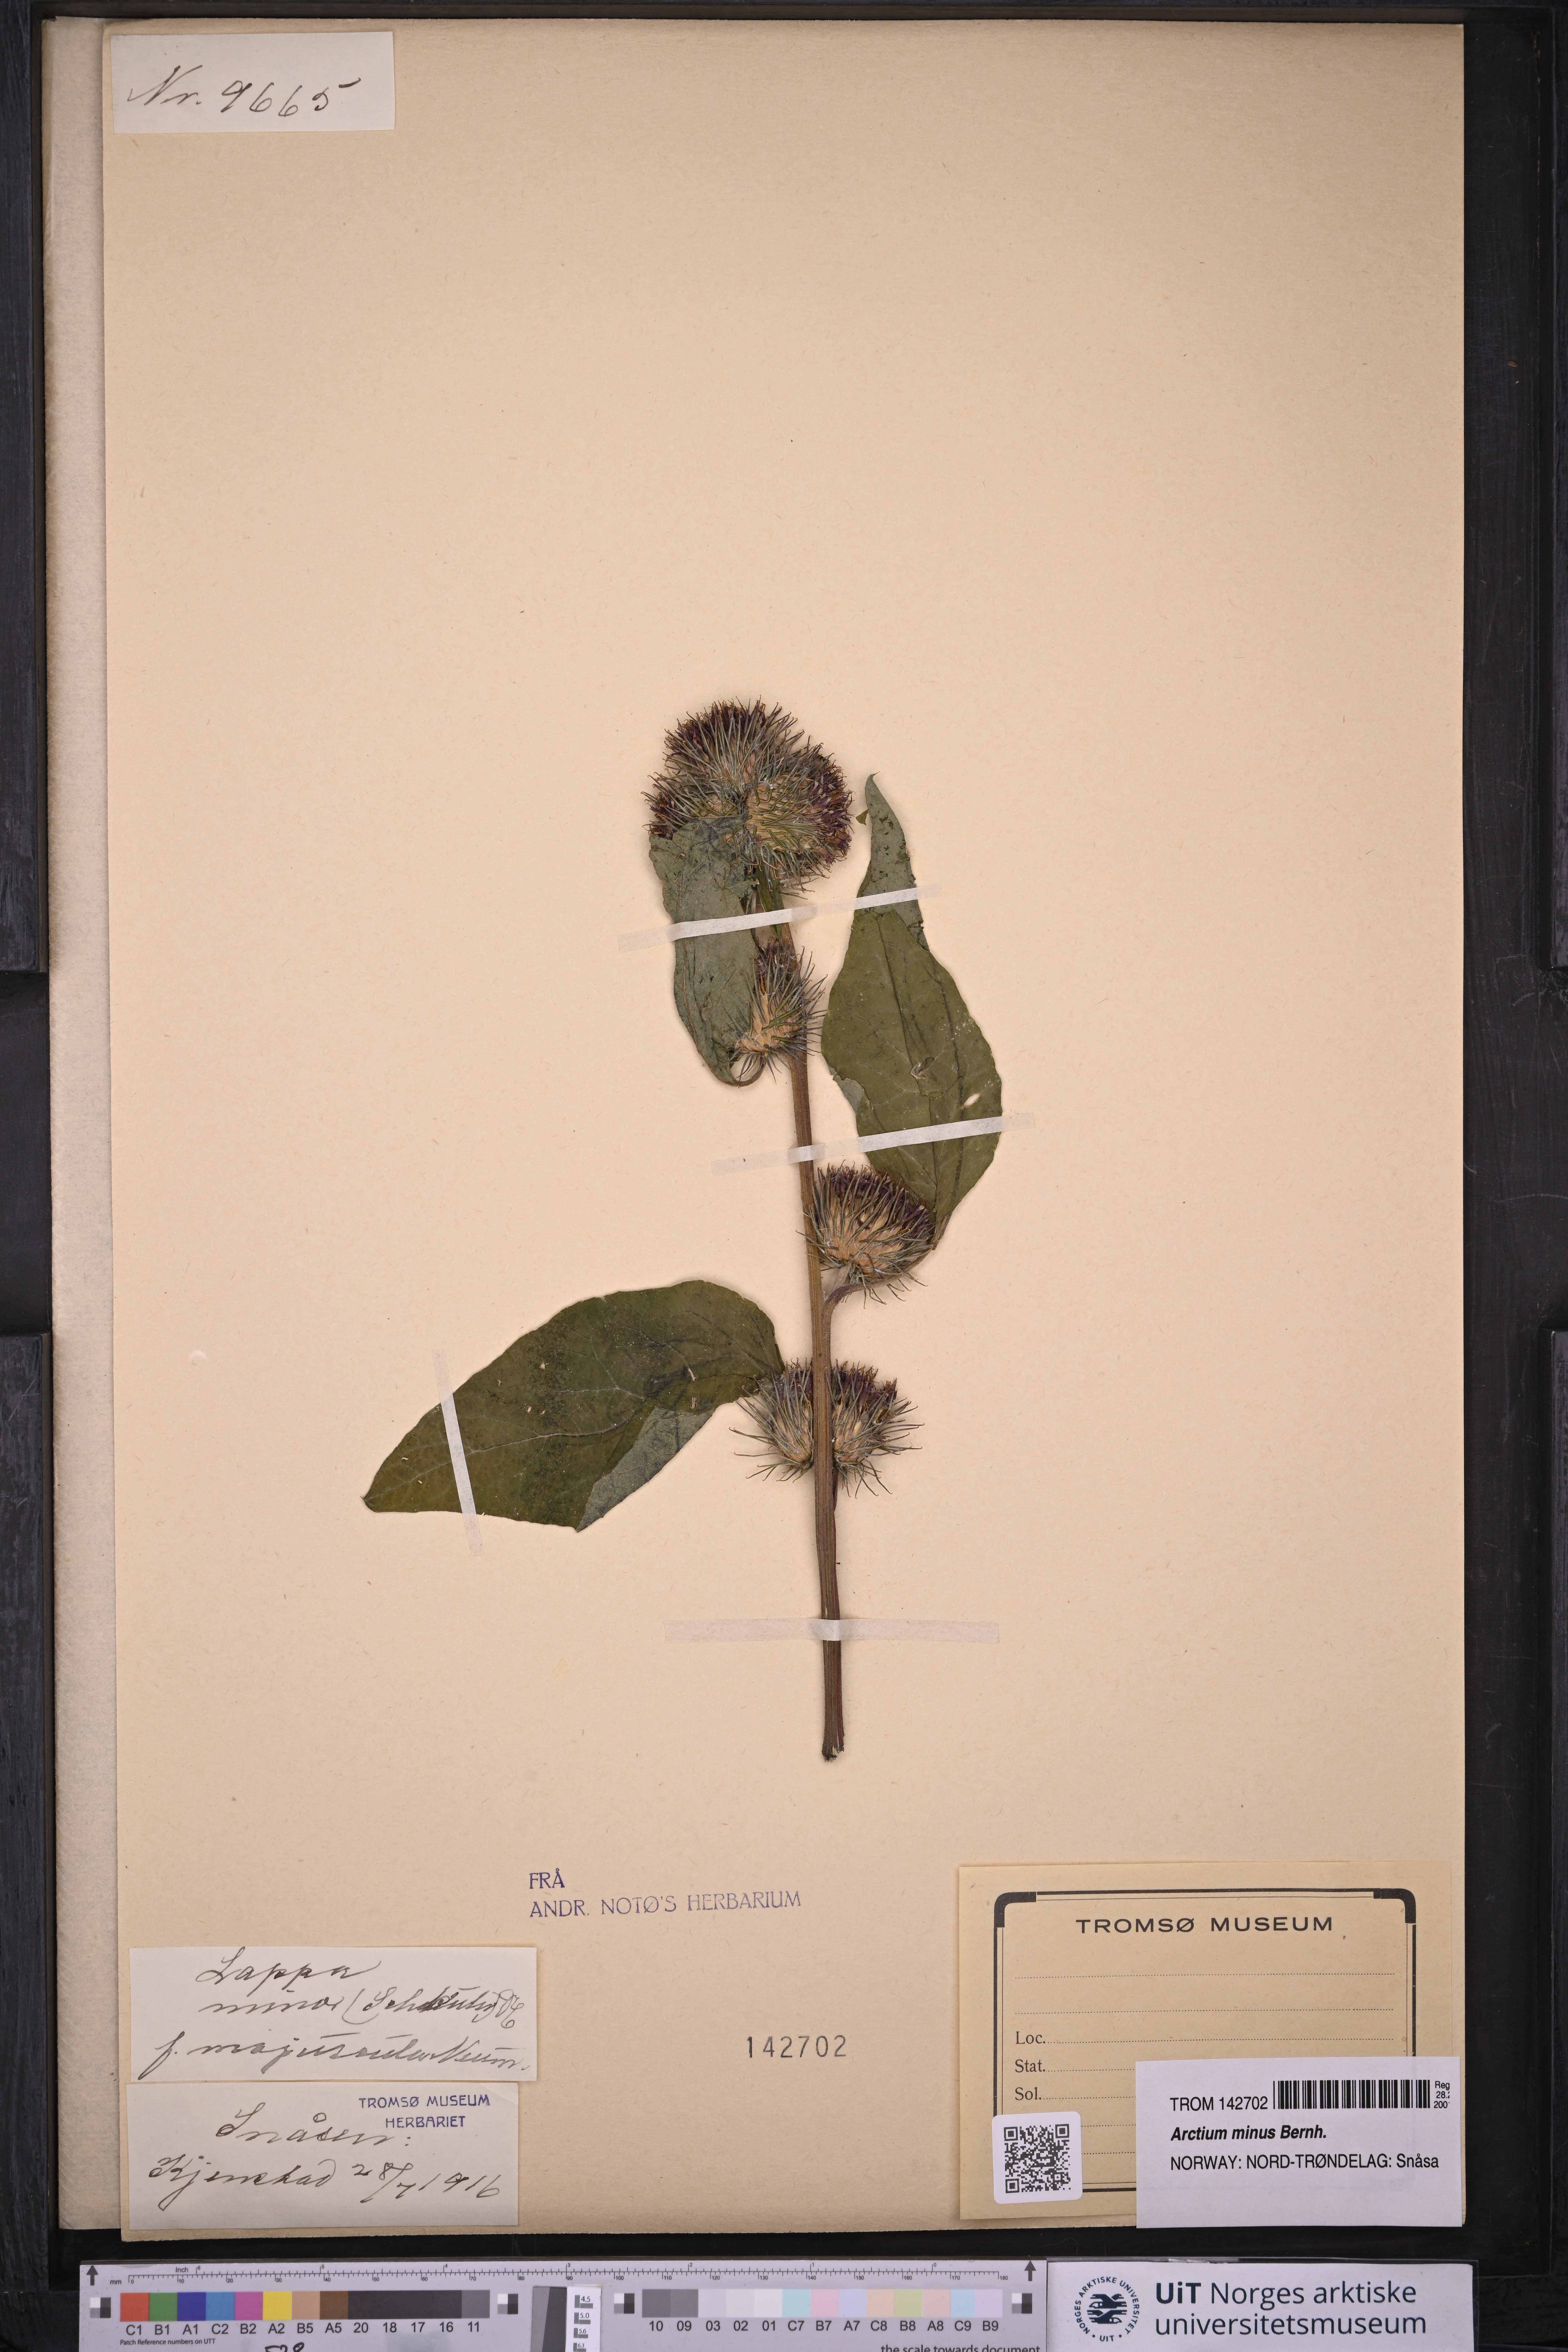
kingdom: Plantae
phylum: Tracheophyta
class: Magnoliopsida
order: Asterales
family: Asteraceae
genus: Arctium
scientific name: Arctium minus
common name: Lesser burdock
